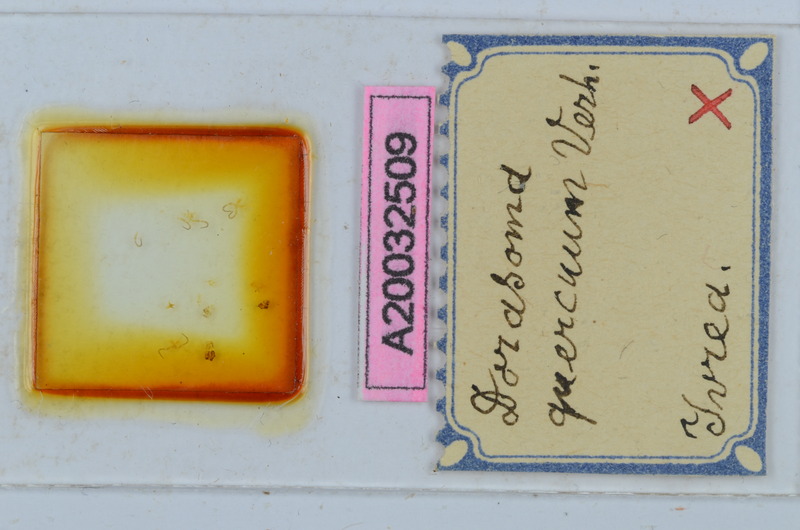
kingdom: Animalia
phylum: Arthropoda
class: Diplopoda
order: Chordeumatida
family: Craspedosomatidae
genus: Bomogona
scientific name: Bomogona helvetica
